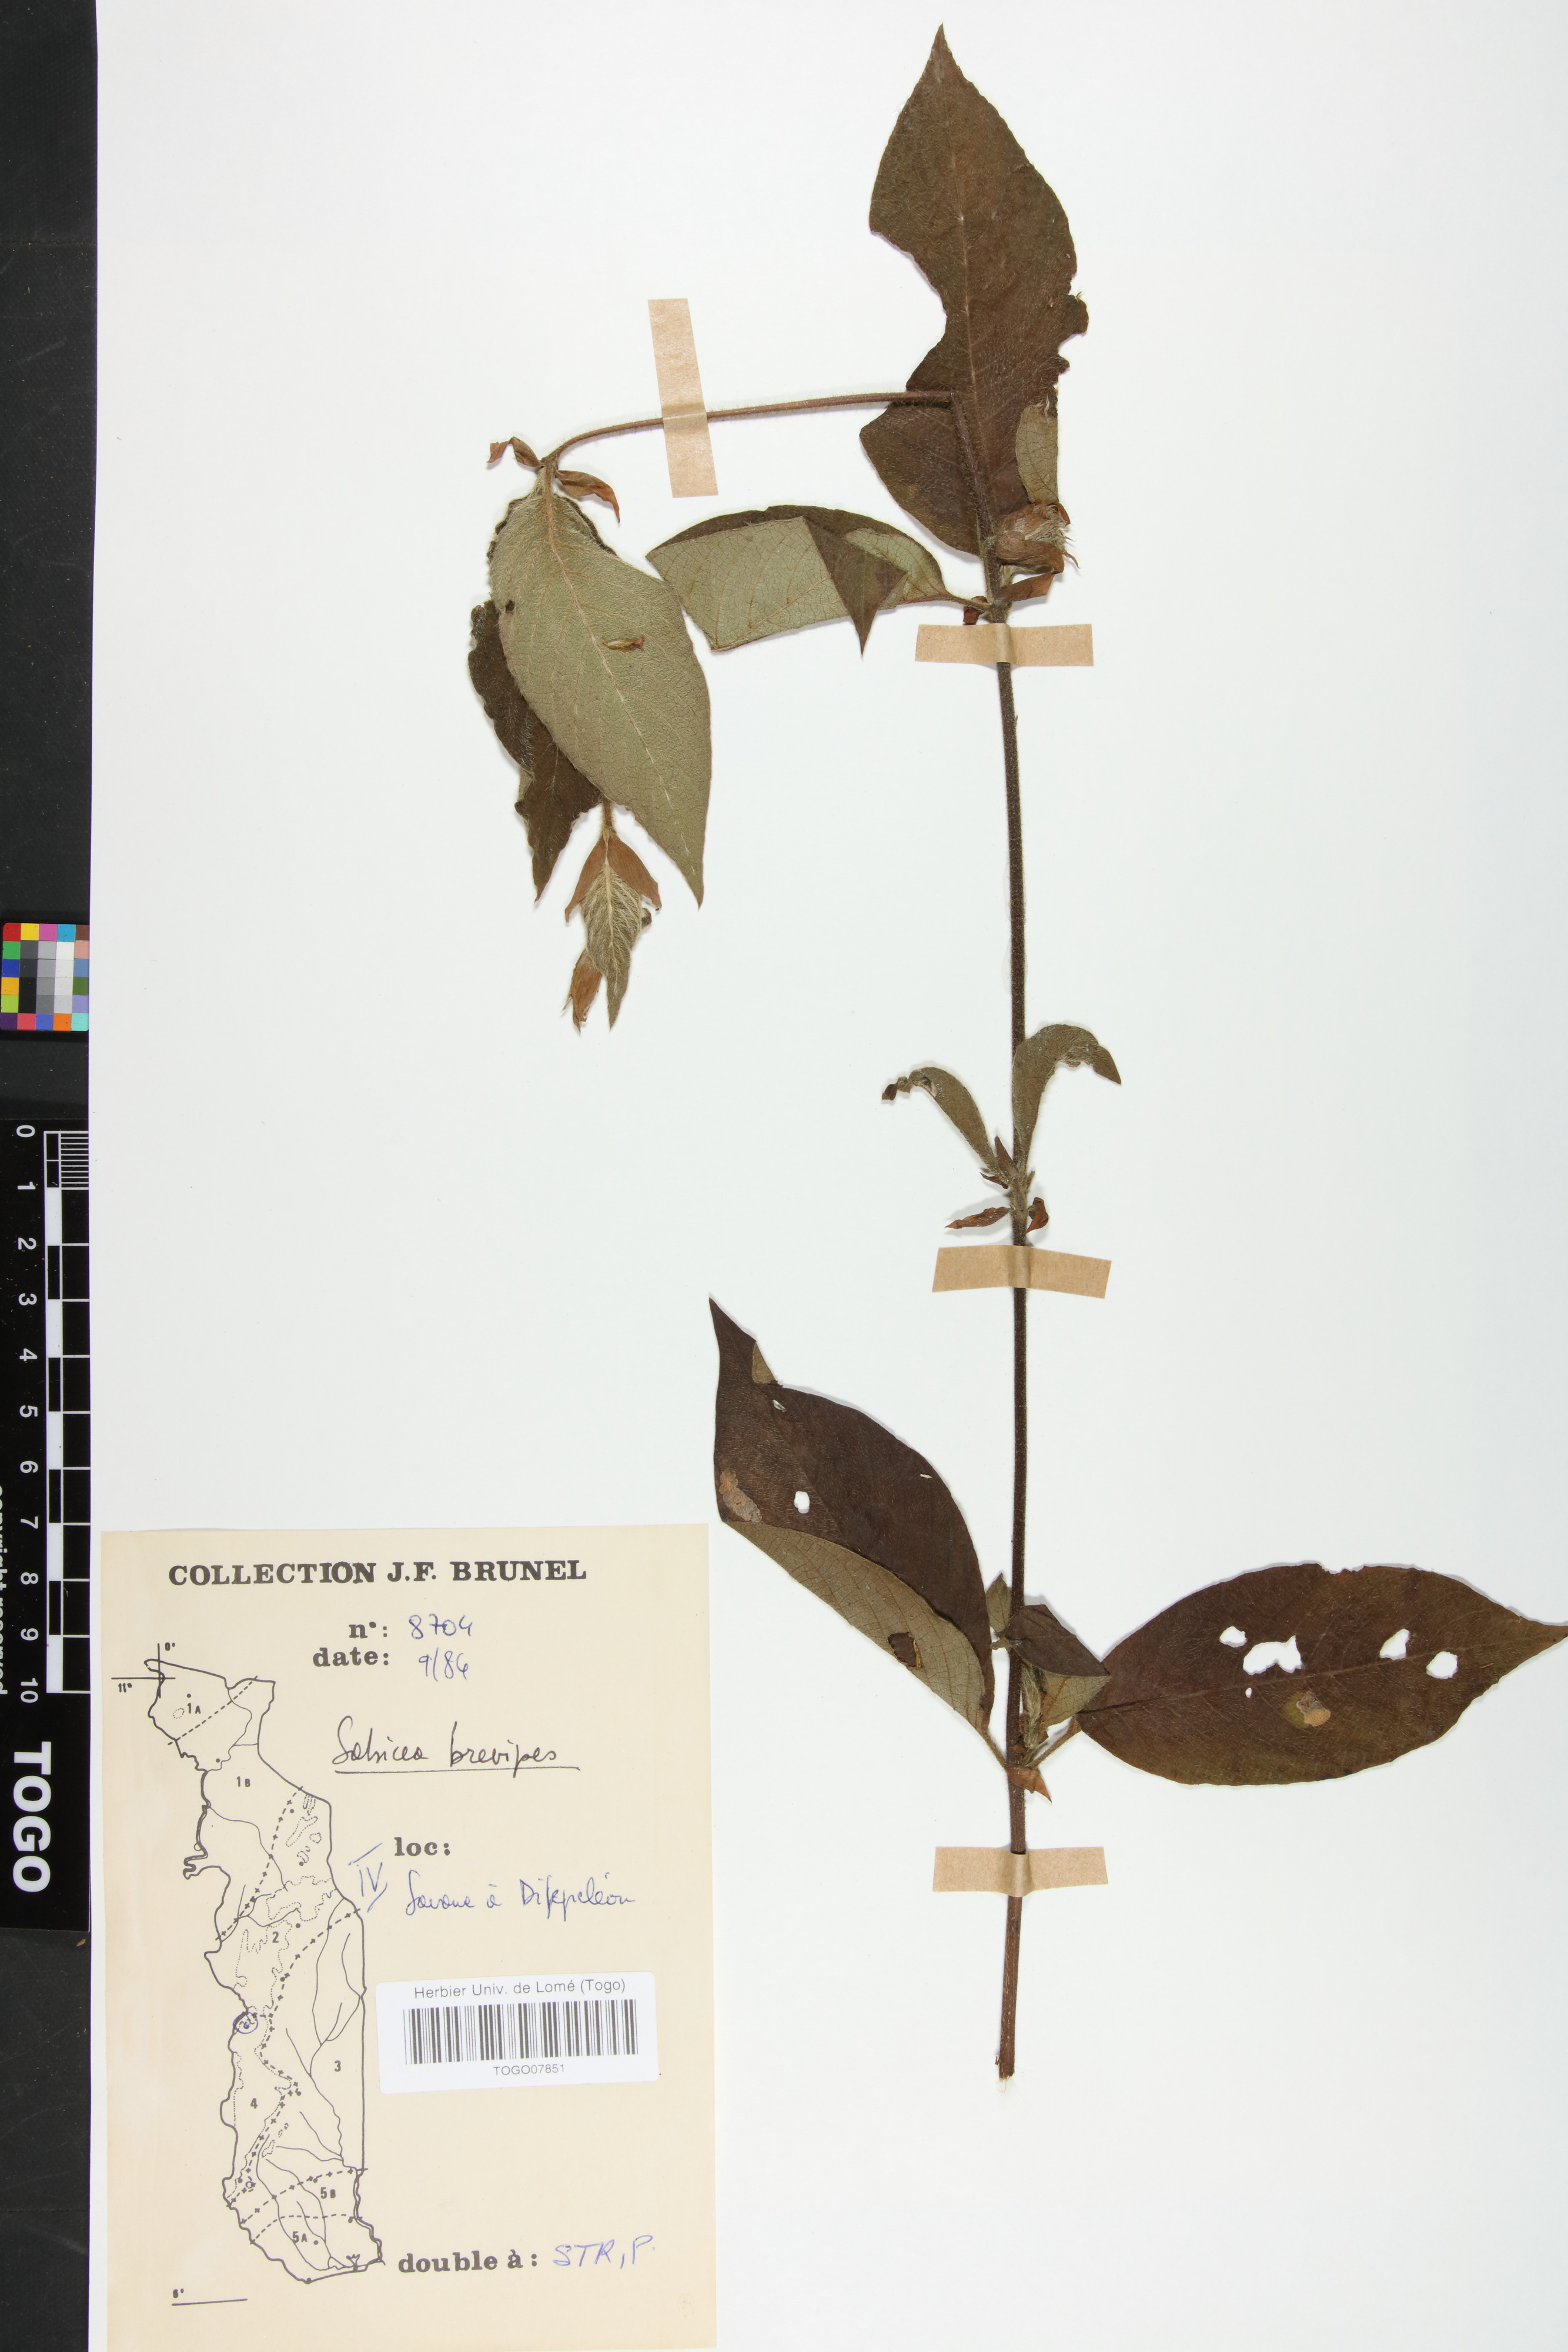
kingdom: Plantae
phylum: Tracheophyta
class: Magnoliopsida
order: Gentianales
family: Rubiaceae
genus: Sabicea
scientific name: Sabicea brevipes
